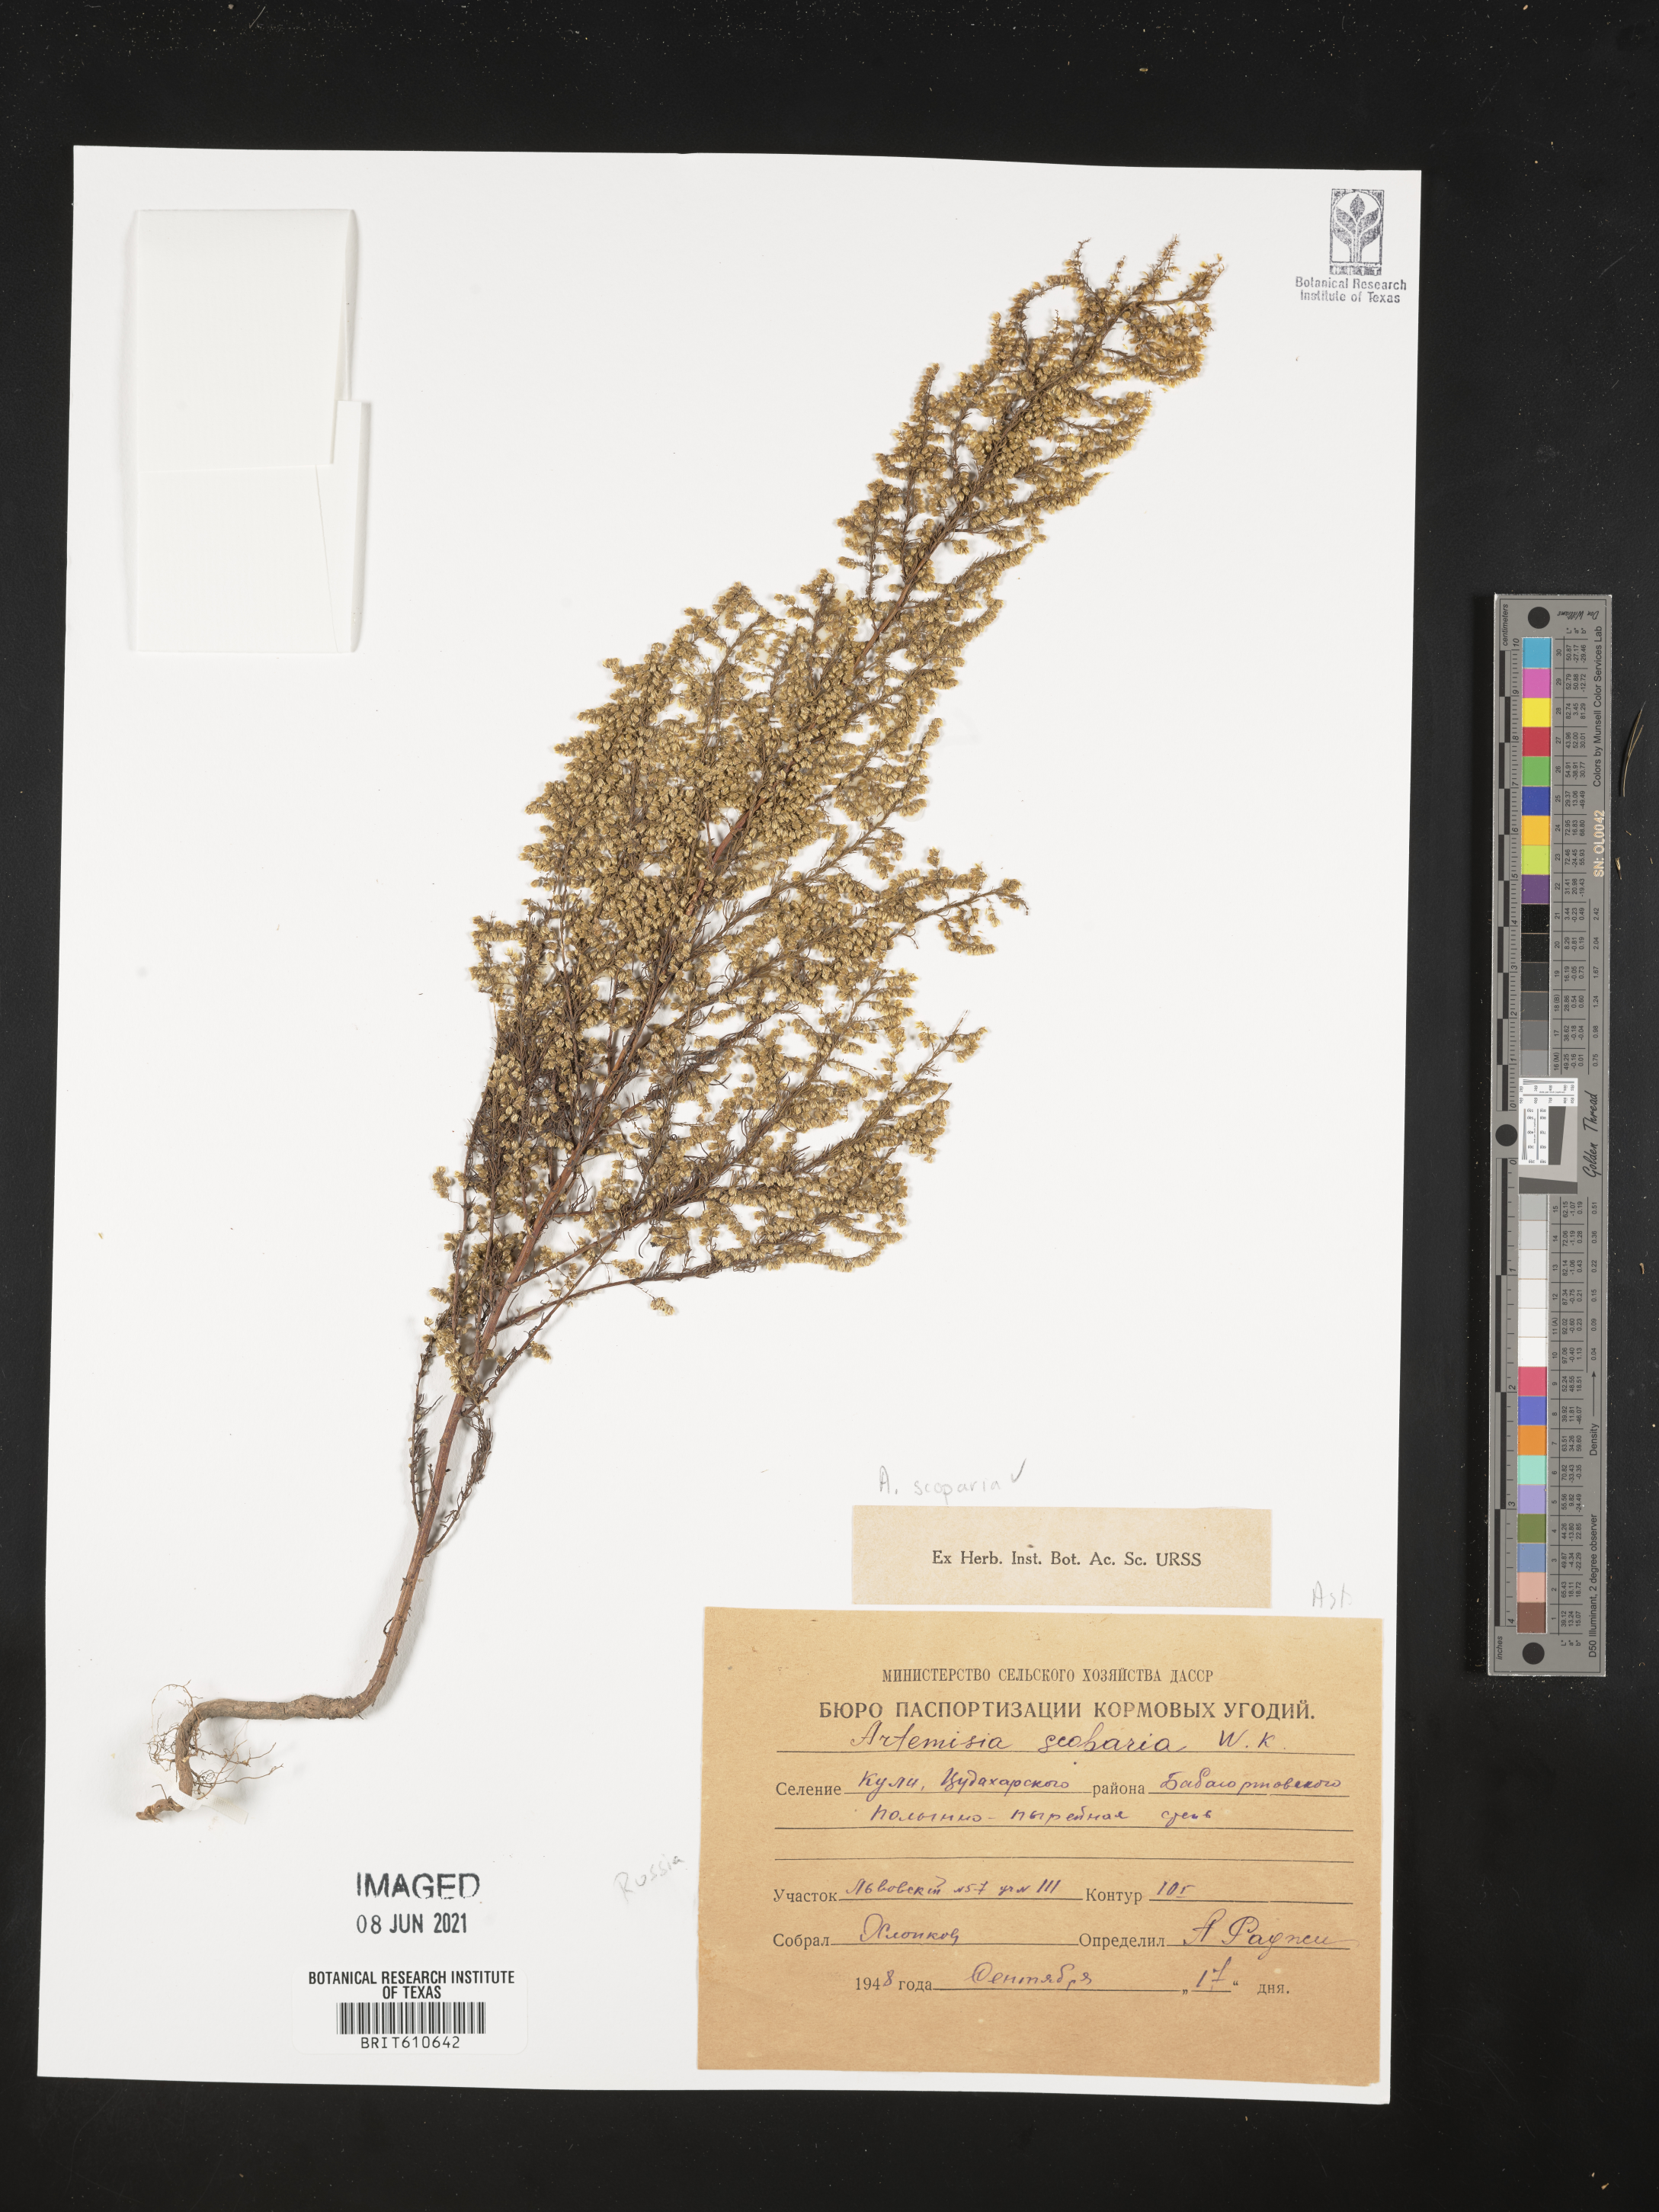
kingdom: Plantae
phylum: Tracheophyta
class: Magnoliopsida
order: Asterales
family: Asteraceae
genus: Artemisia
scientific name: Artemisia scoparia
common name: Redstem wormwood
